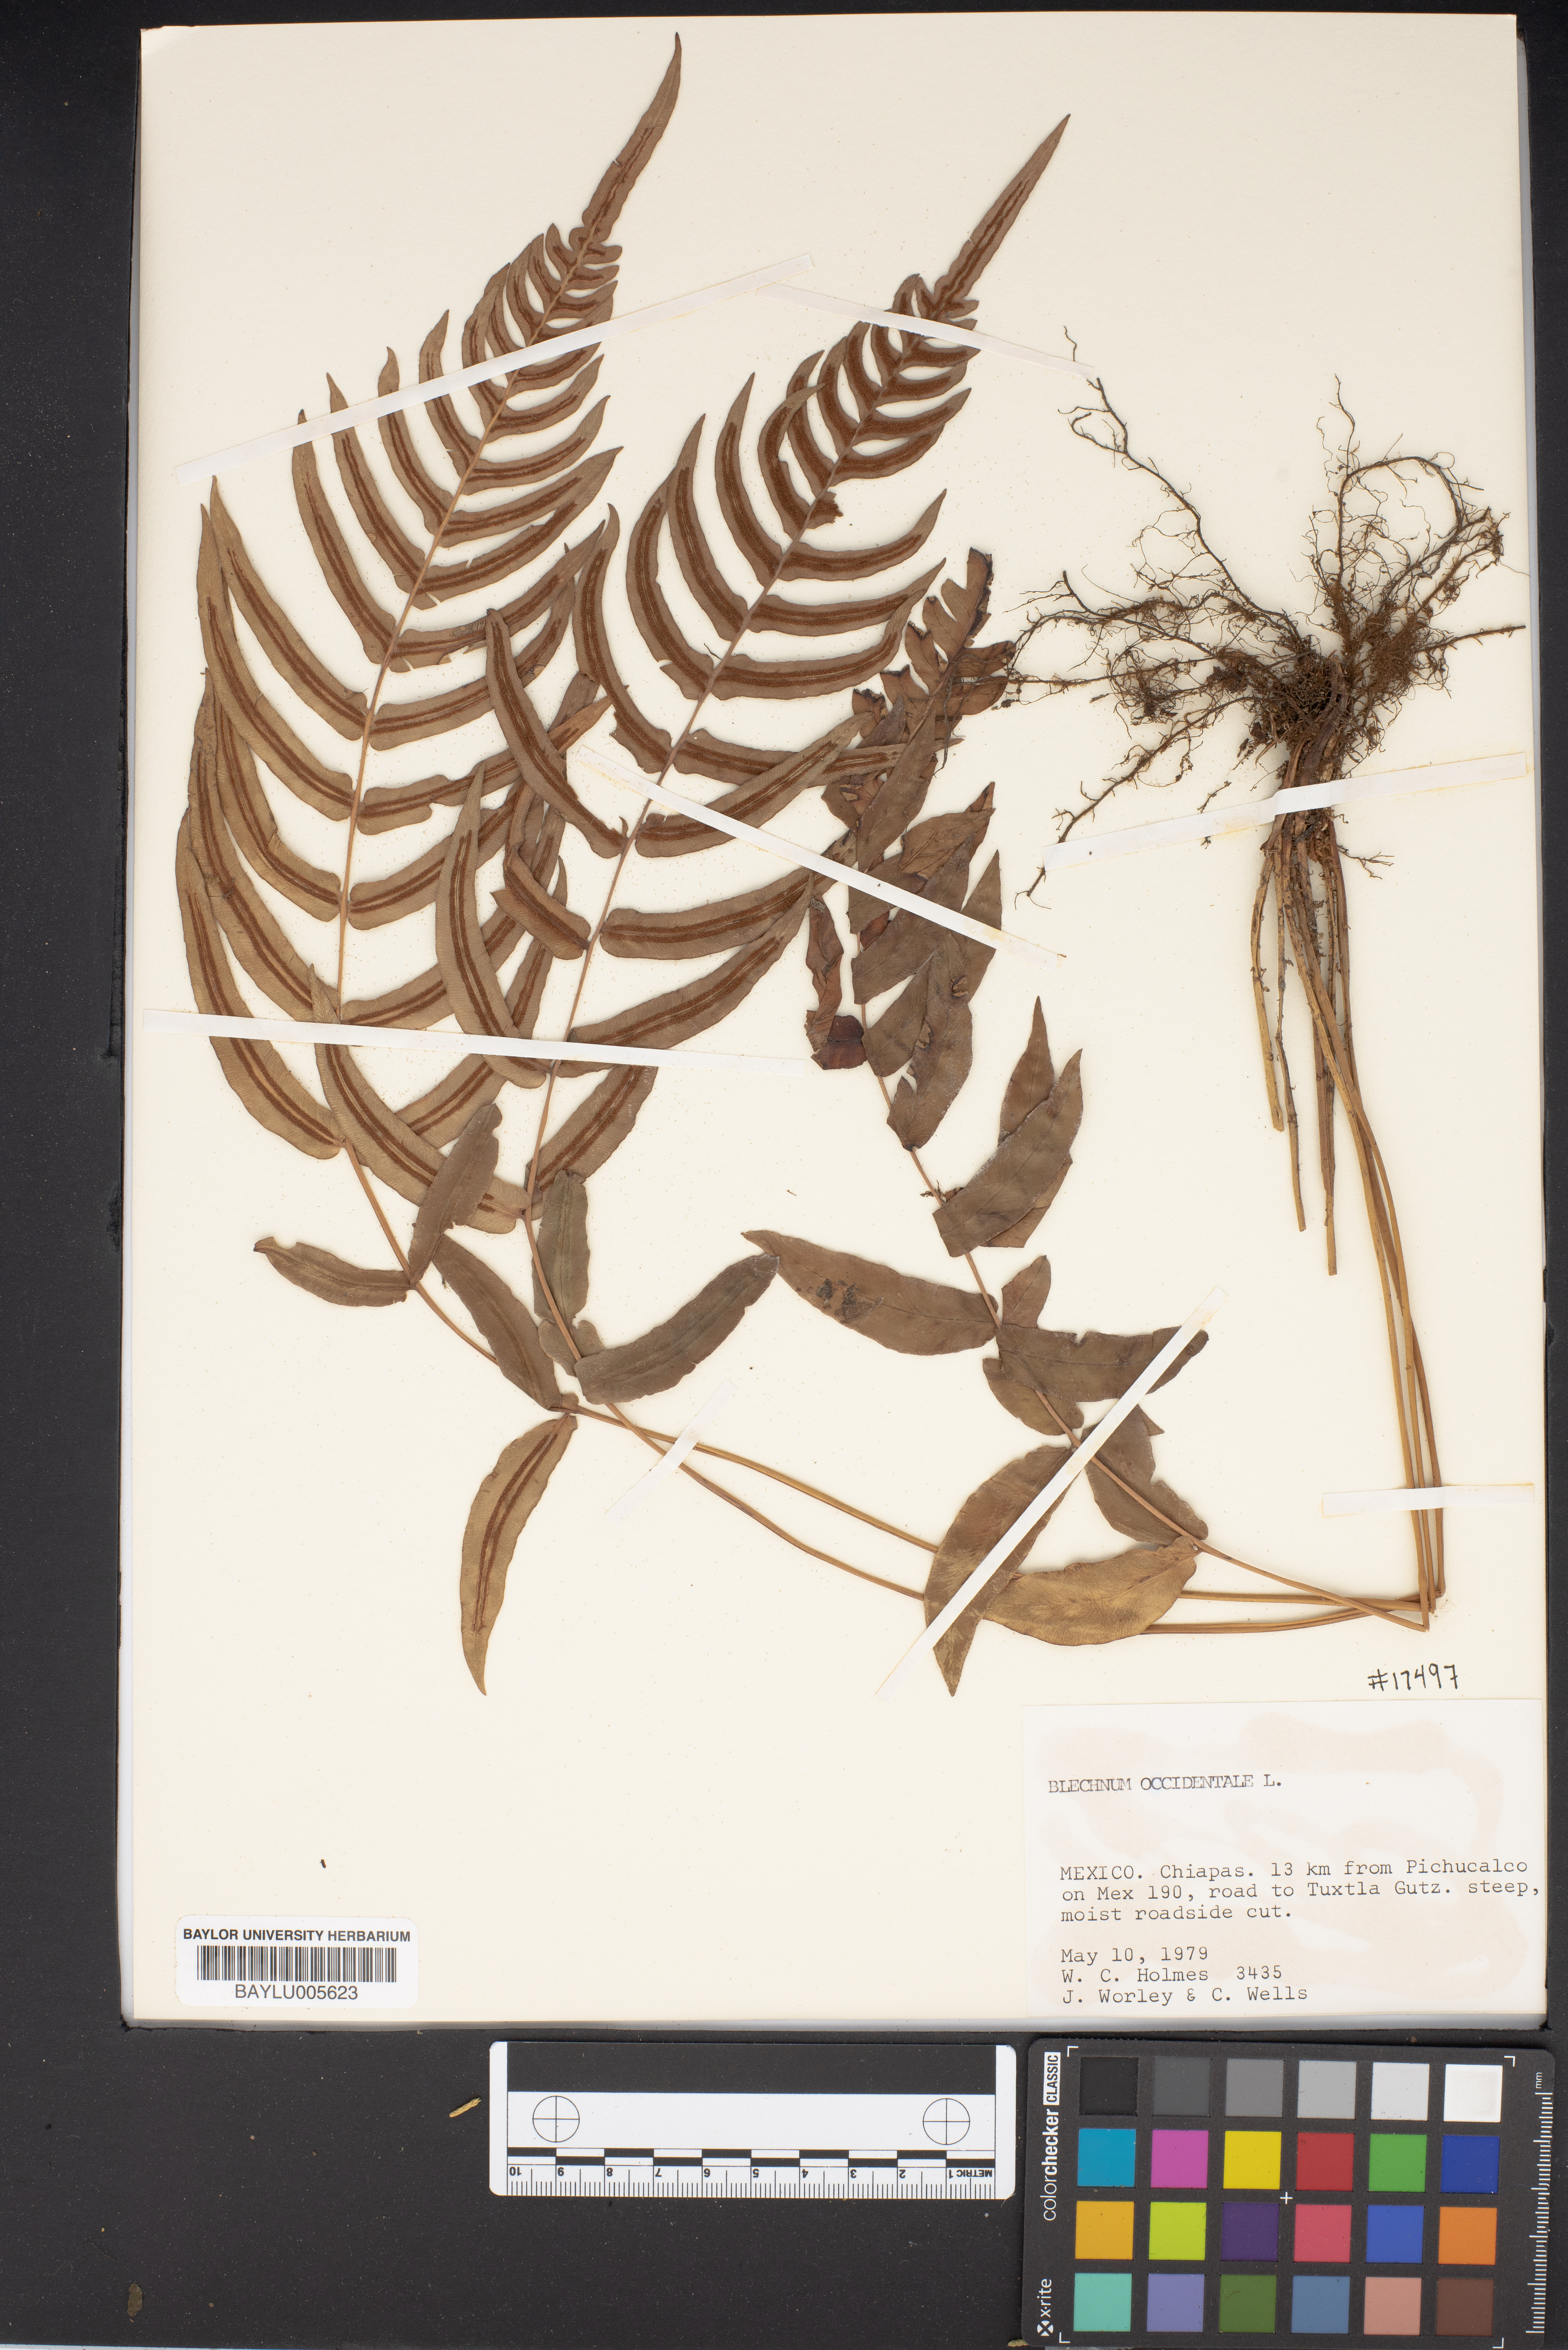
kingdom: Plantae
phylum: Tracheophyta
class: Polypodiopsida
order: Polypodiales
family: Blechnaceae
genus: Blechnum
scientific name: Blechnum occidentale
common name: Hammock fern
